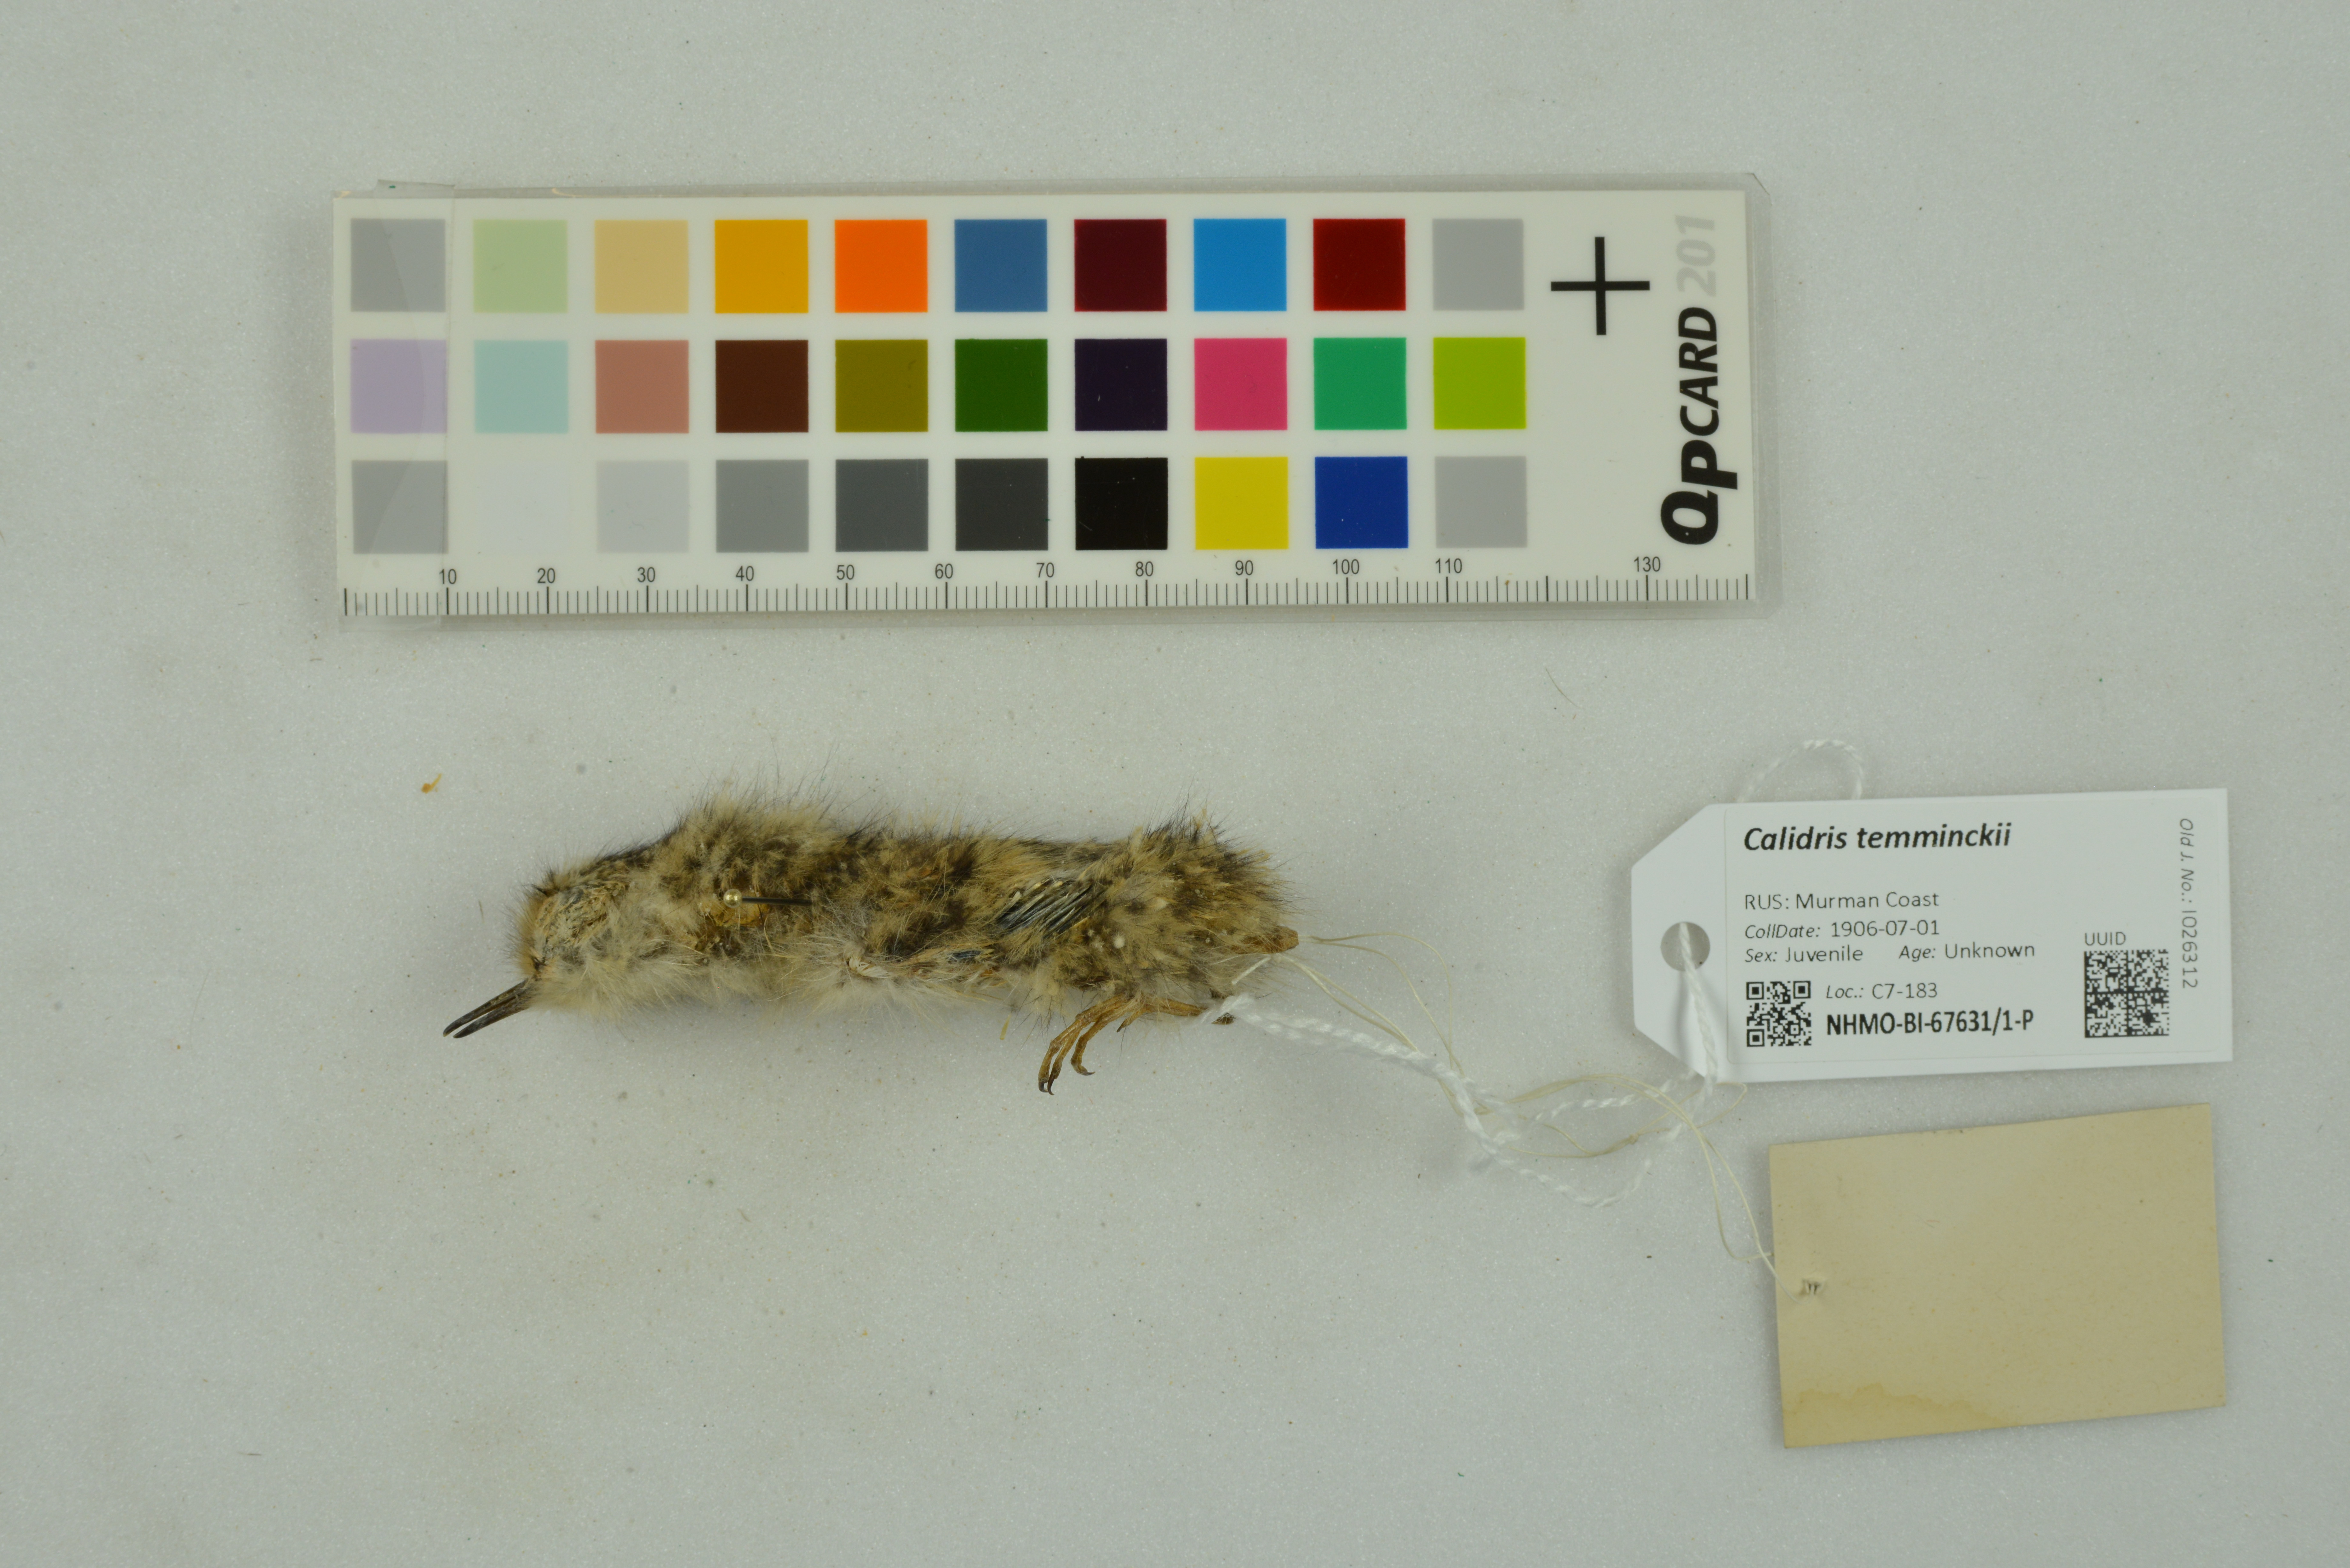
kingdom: Animalia
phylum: Chordata
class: Aves
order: Charadriiformes
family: Scolopacidae
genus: Calidris
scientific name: Calidris temminckii
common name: Temminck's stint
